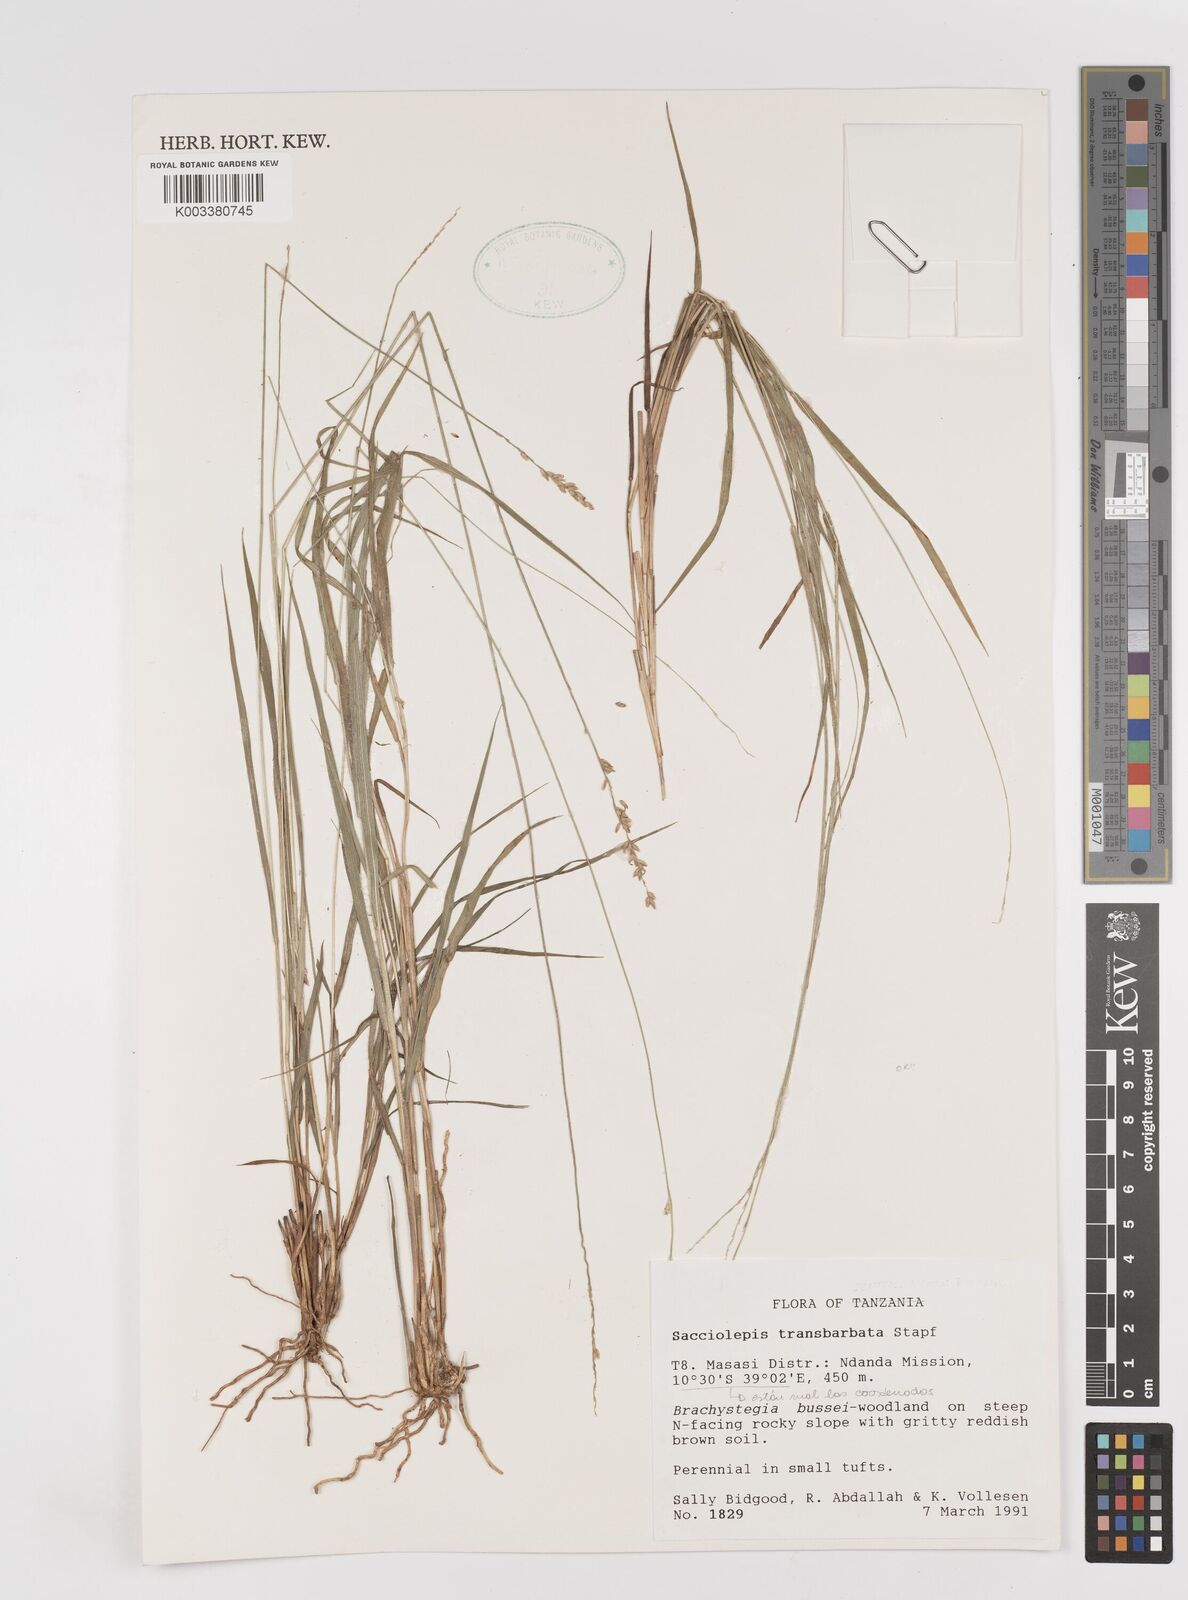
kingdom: Plantae
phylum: Tracheophyta
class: Liliopsida
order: Poales
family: Poaceae
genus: Sacciolepis
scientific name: Sacciolepis transbarbata
